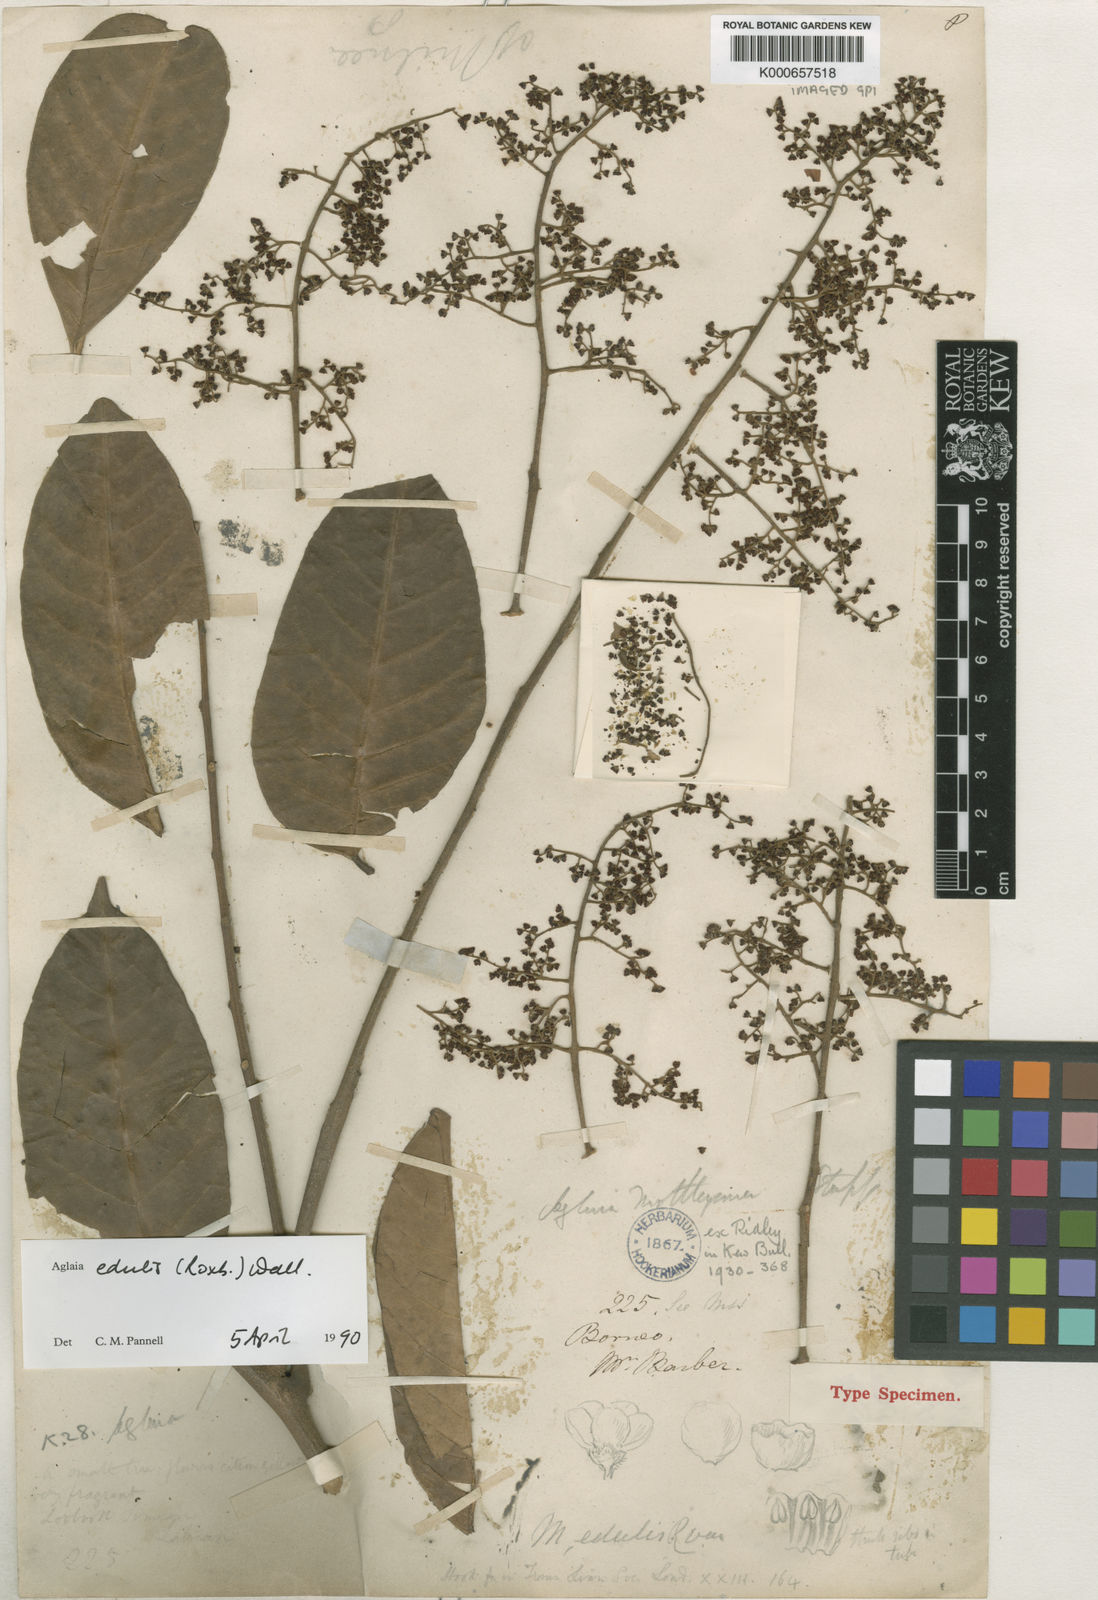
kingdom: Plantae
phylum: Tracheophyta
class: Magnoliopsida
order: Sapindales
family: Meliaceae
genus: Aglaia
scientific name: Aglaia edulis
